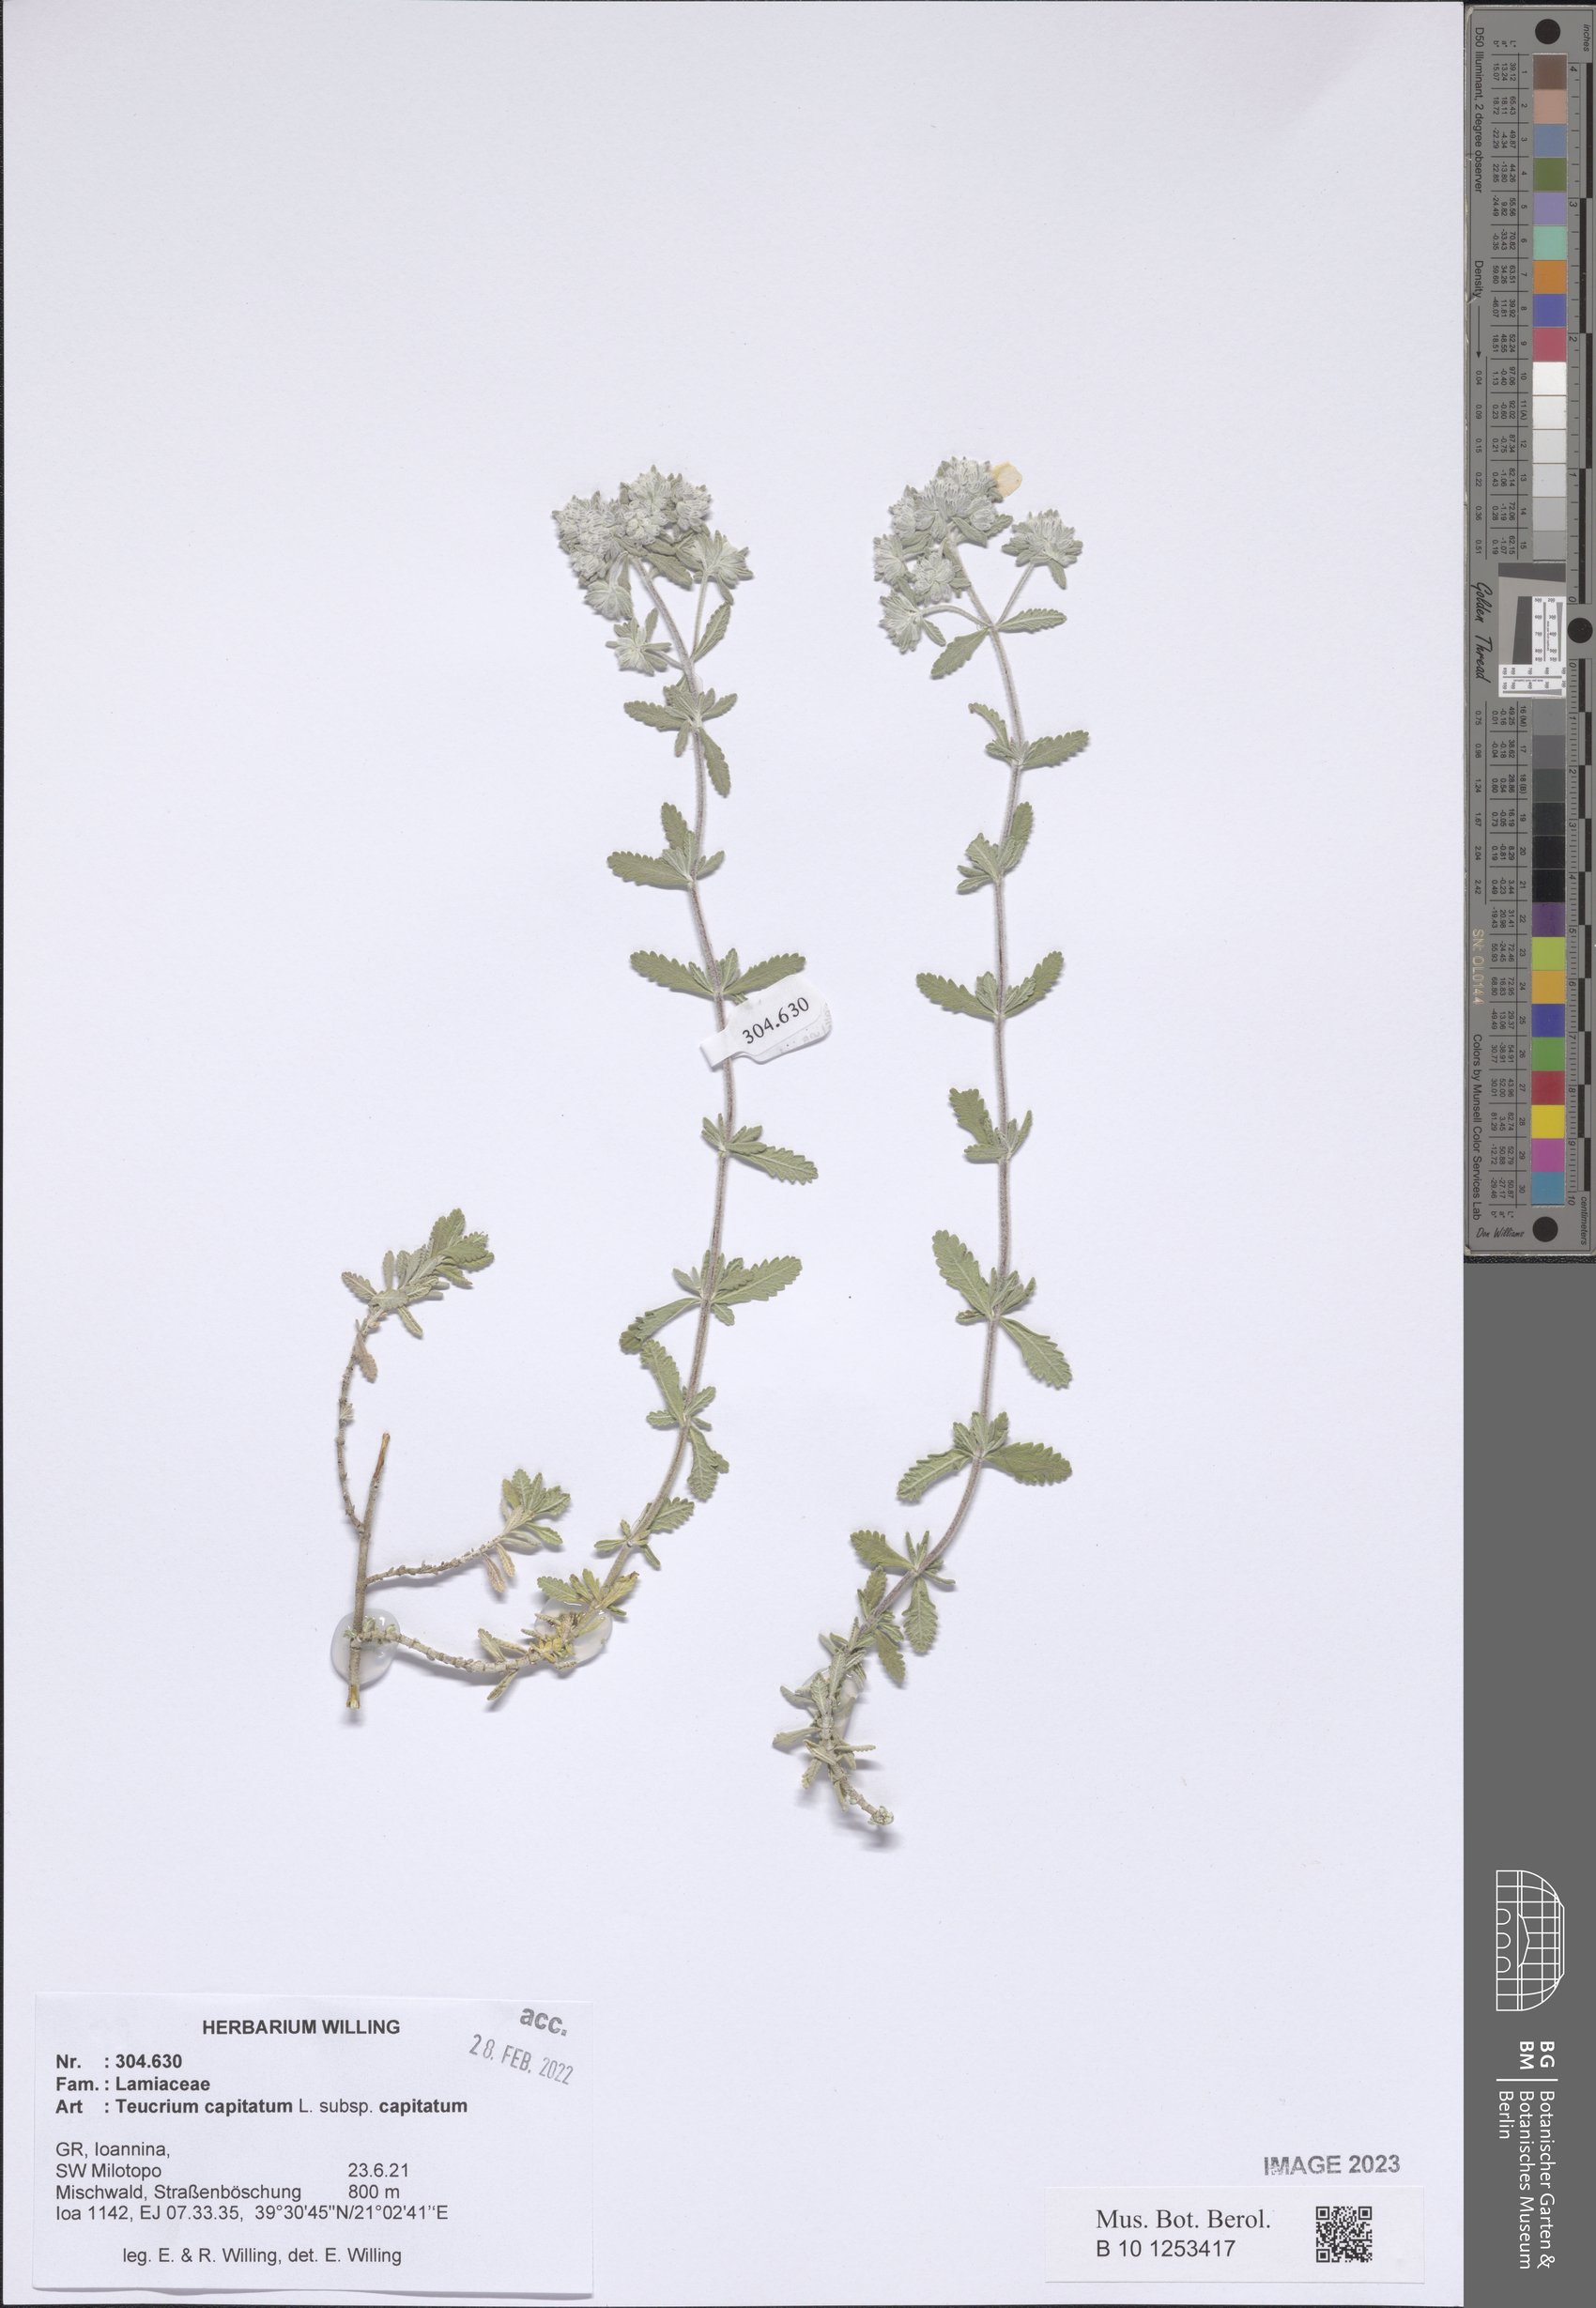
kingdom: Plantae
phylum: Tracheophyta
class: Magnoliopsida
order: Lamiales
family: Lamiaceae
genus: Teucrium
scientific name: Teucrium capitatum
